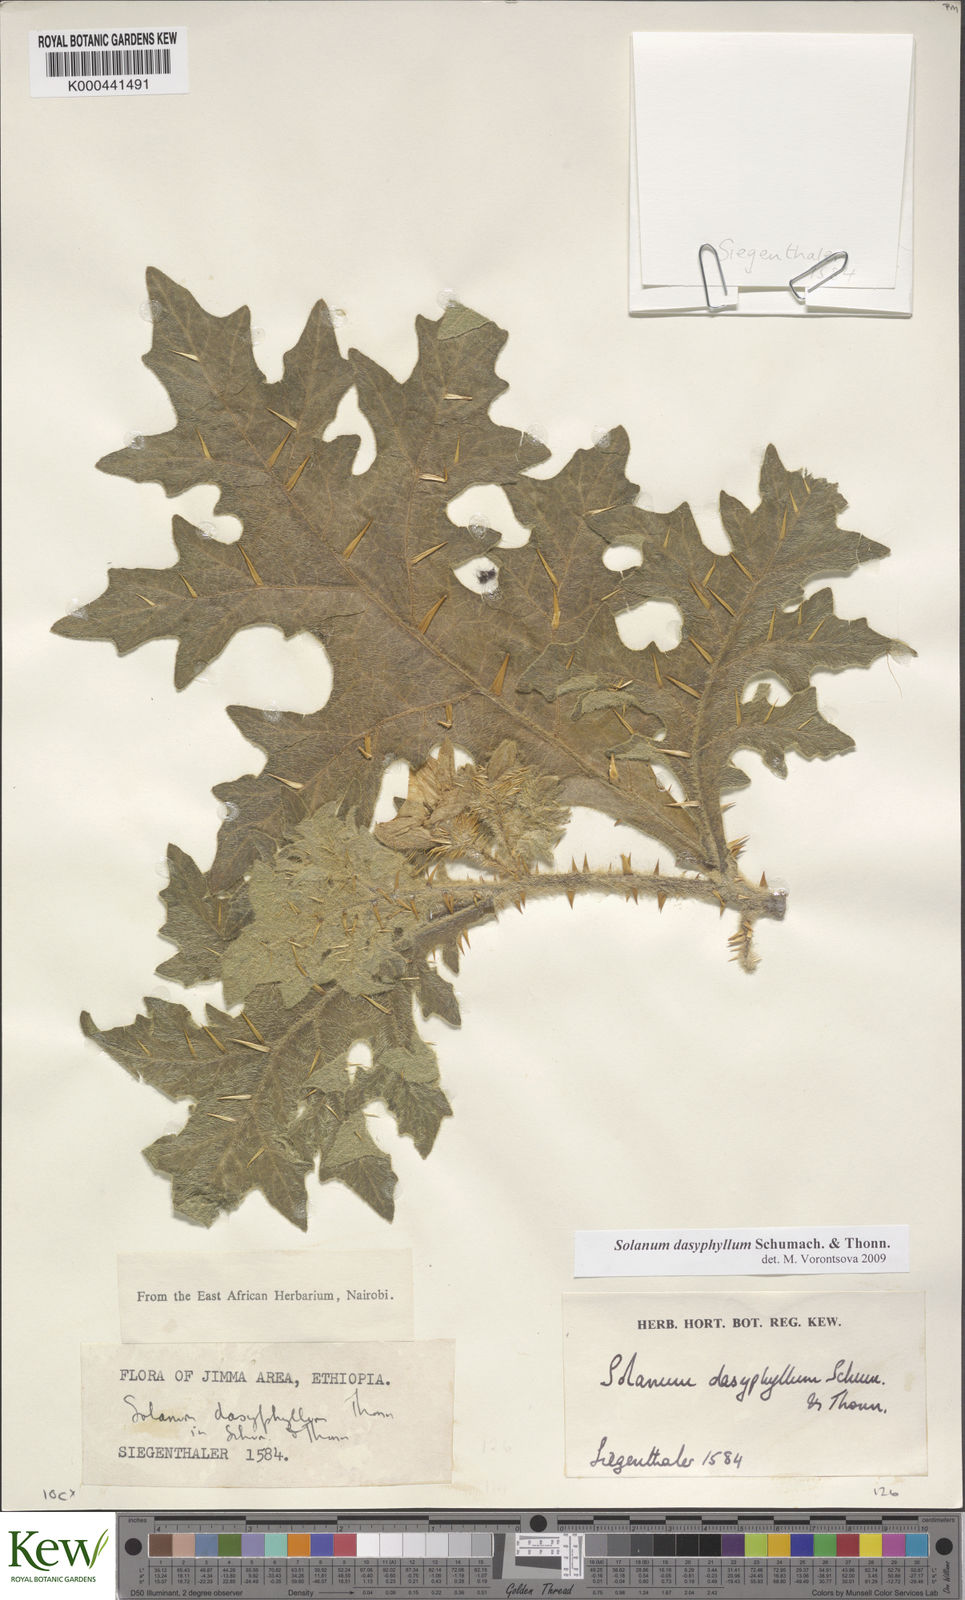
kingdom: Plantae
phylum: Tracheophyta
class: Magnoliopsida
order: Solanales
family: Solanaceae
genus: Solanum
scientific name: Solanum dasyphyllum
